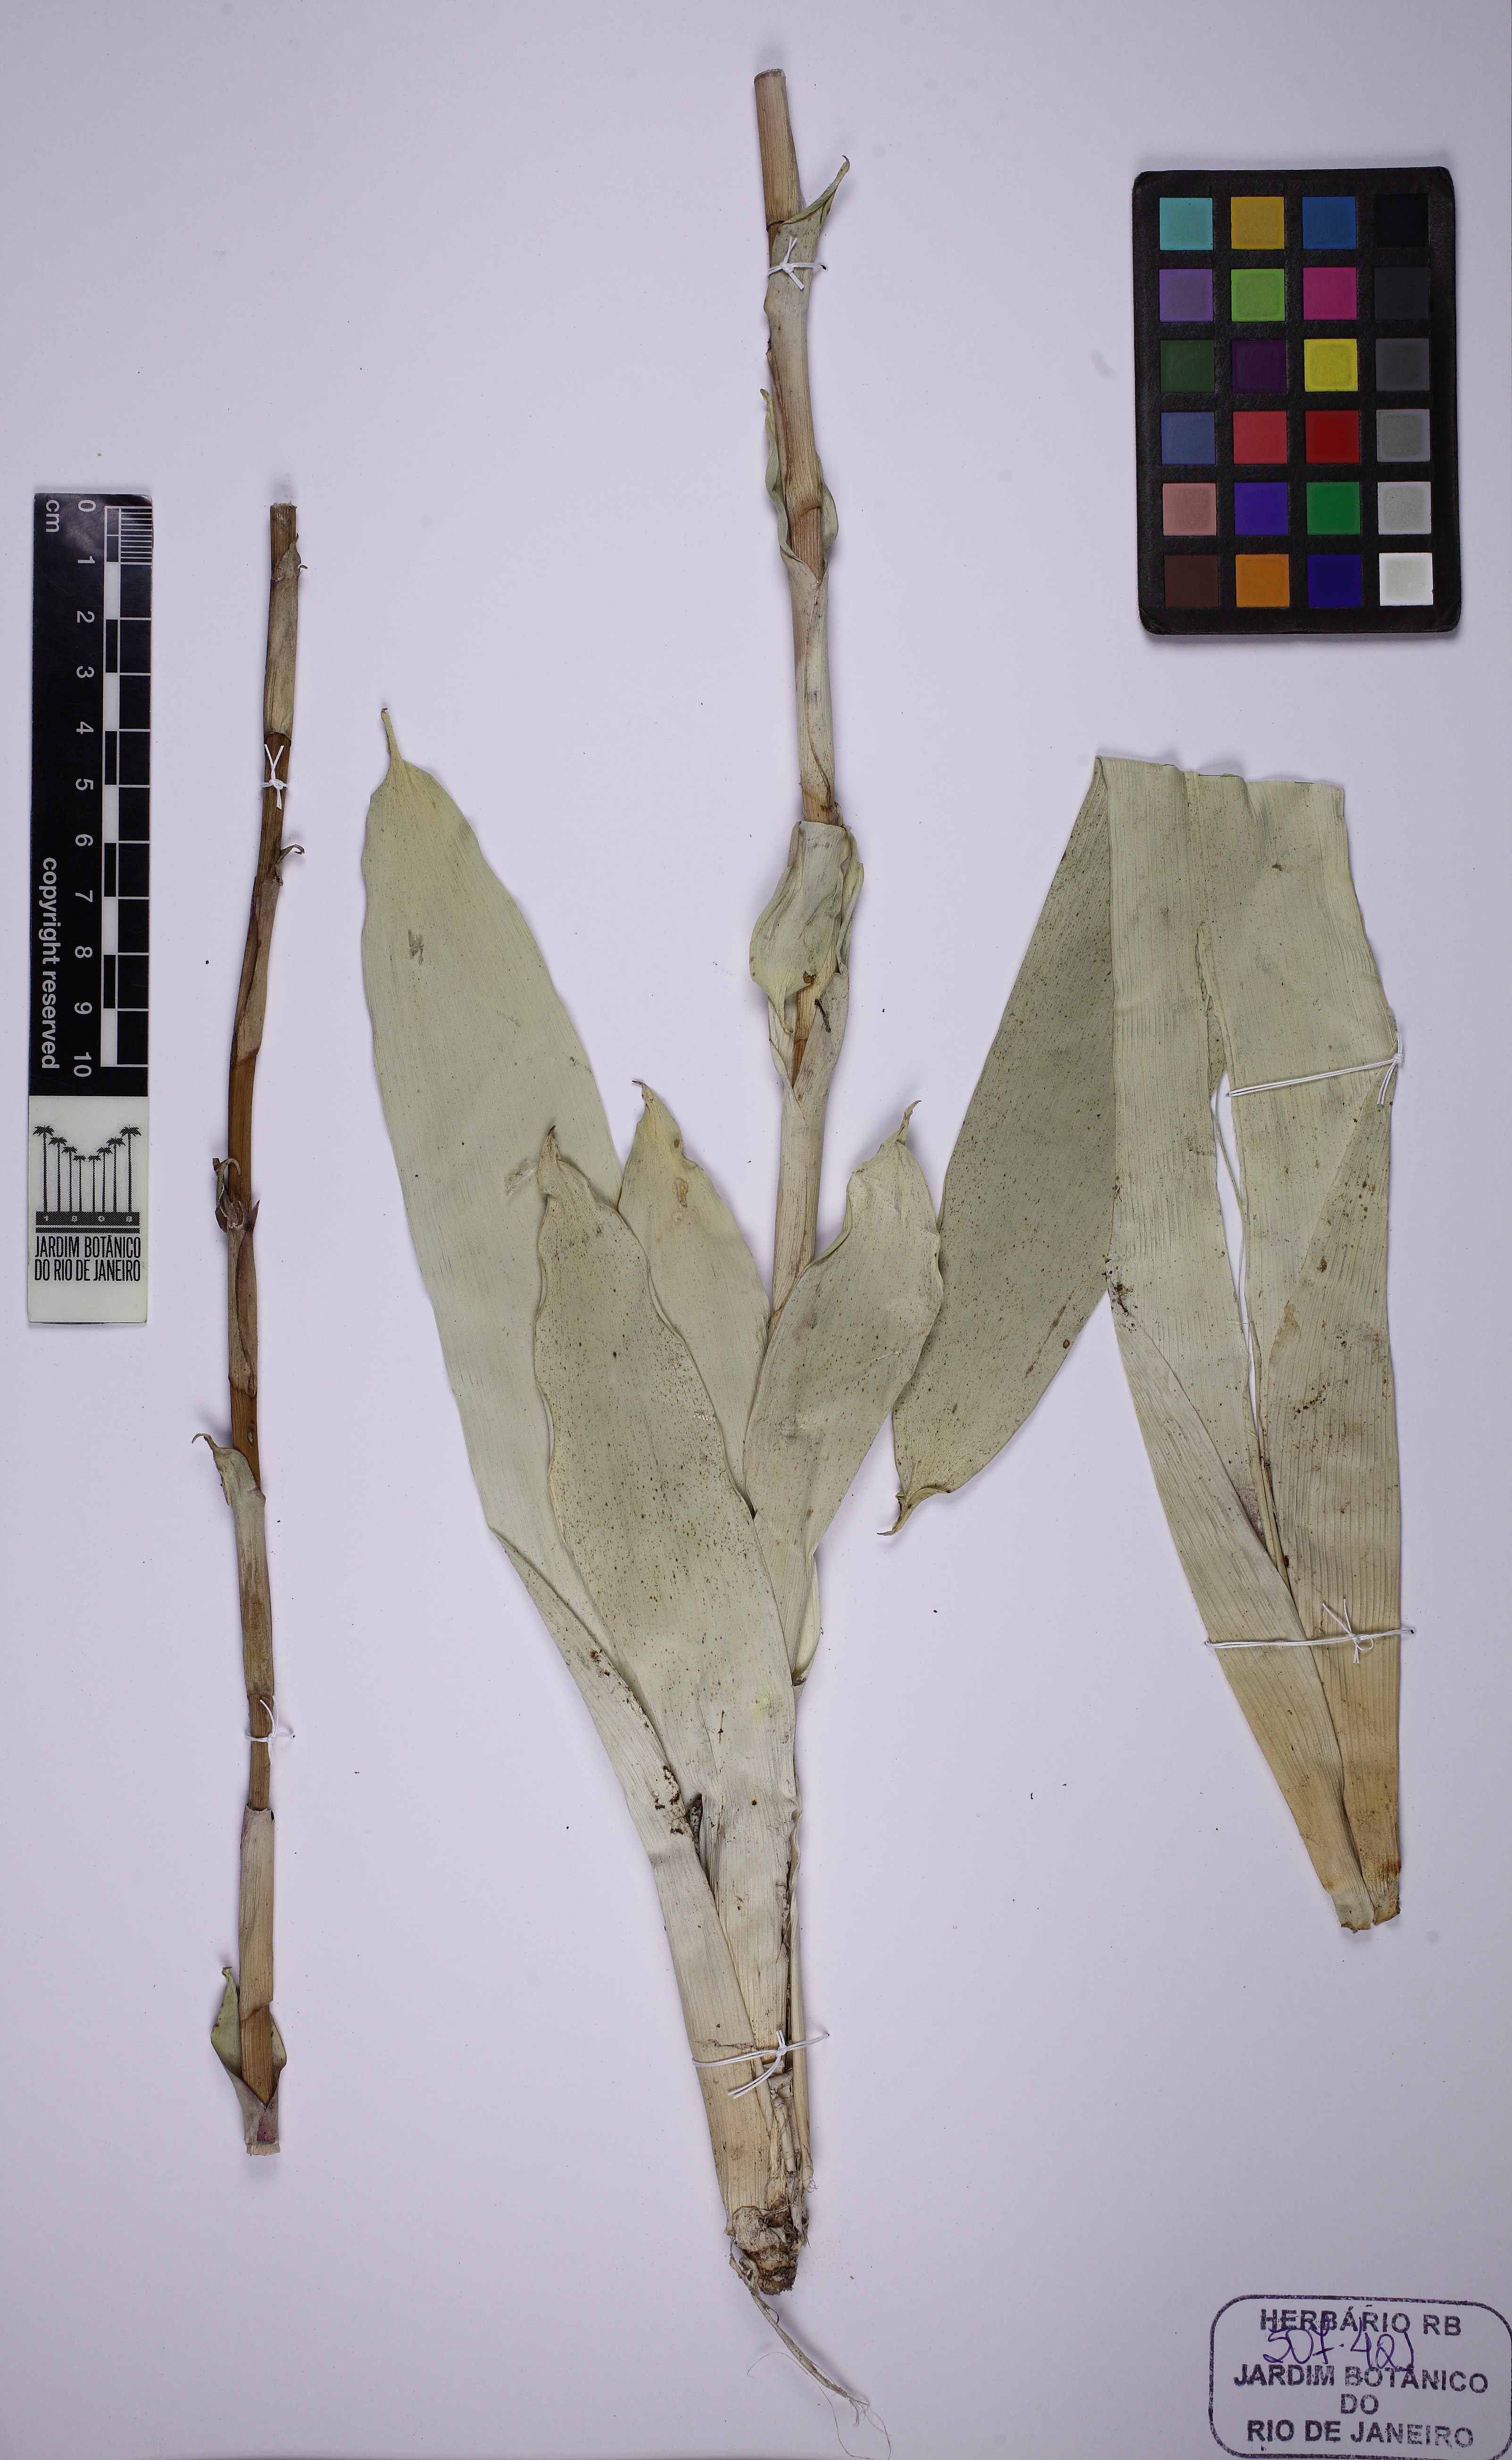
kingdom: Plantae
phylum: Tracheophyta
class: Liliopsida
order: Poales
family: Bromeliaceae
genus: Vriesea
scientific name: Vriesea procera
